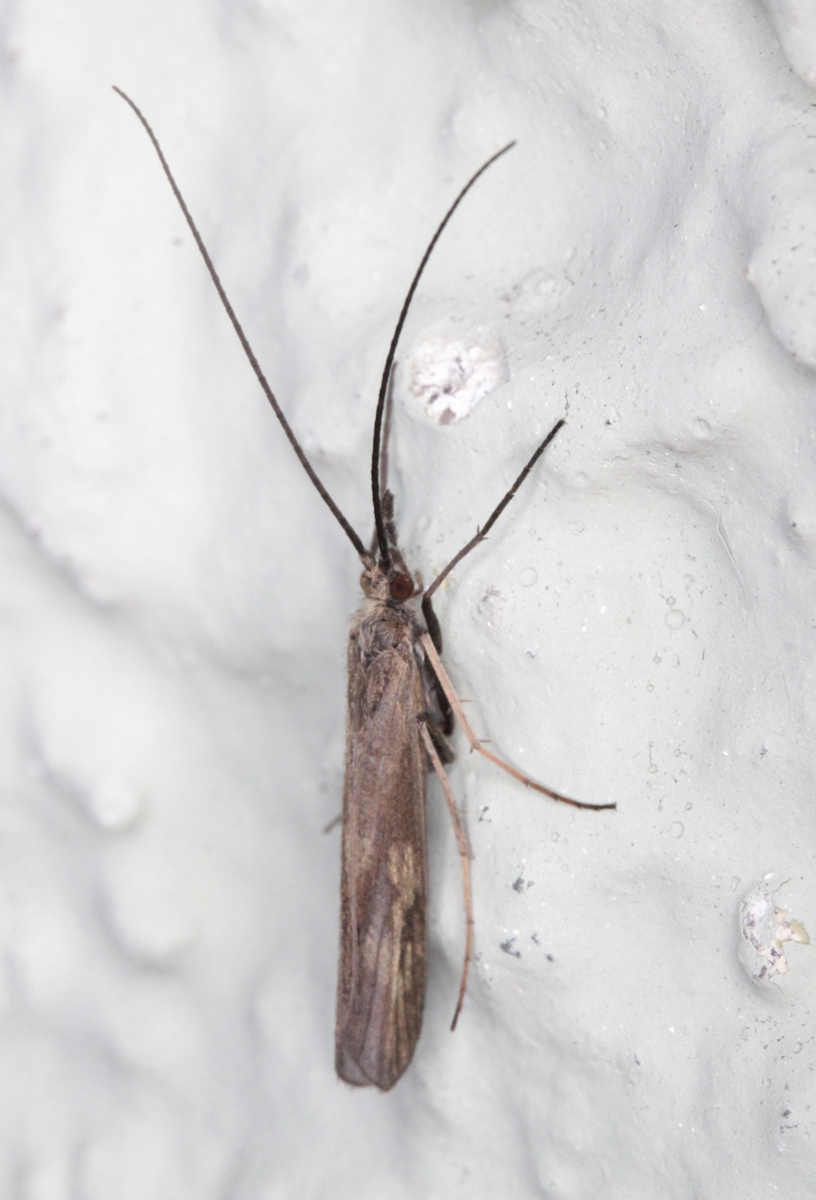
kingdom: Animalia
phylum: Arthropoda
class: Insecta
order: Trichoptera
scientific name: Trichoptera
